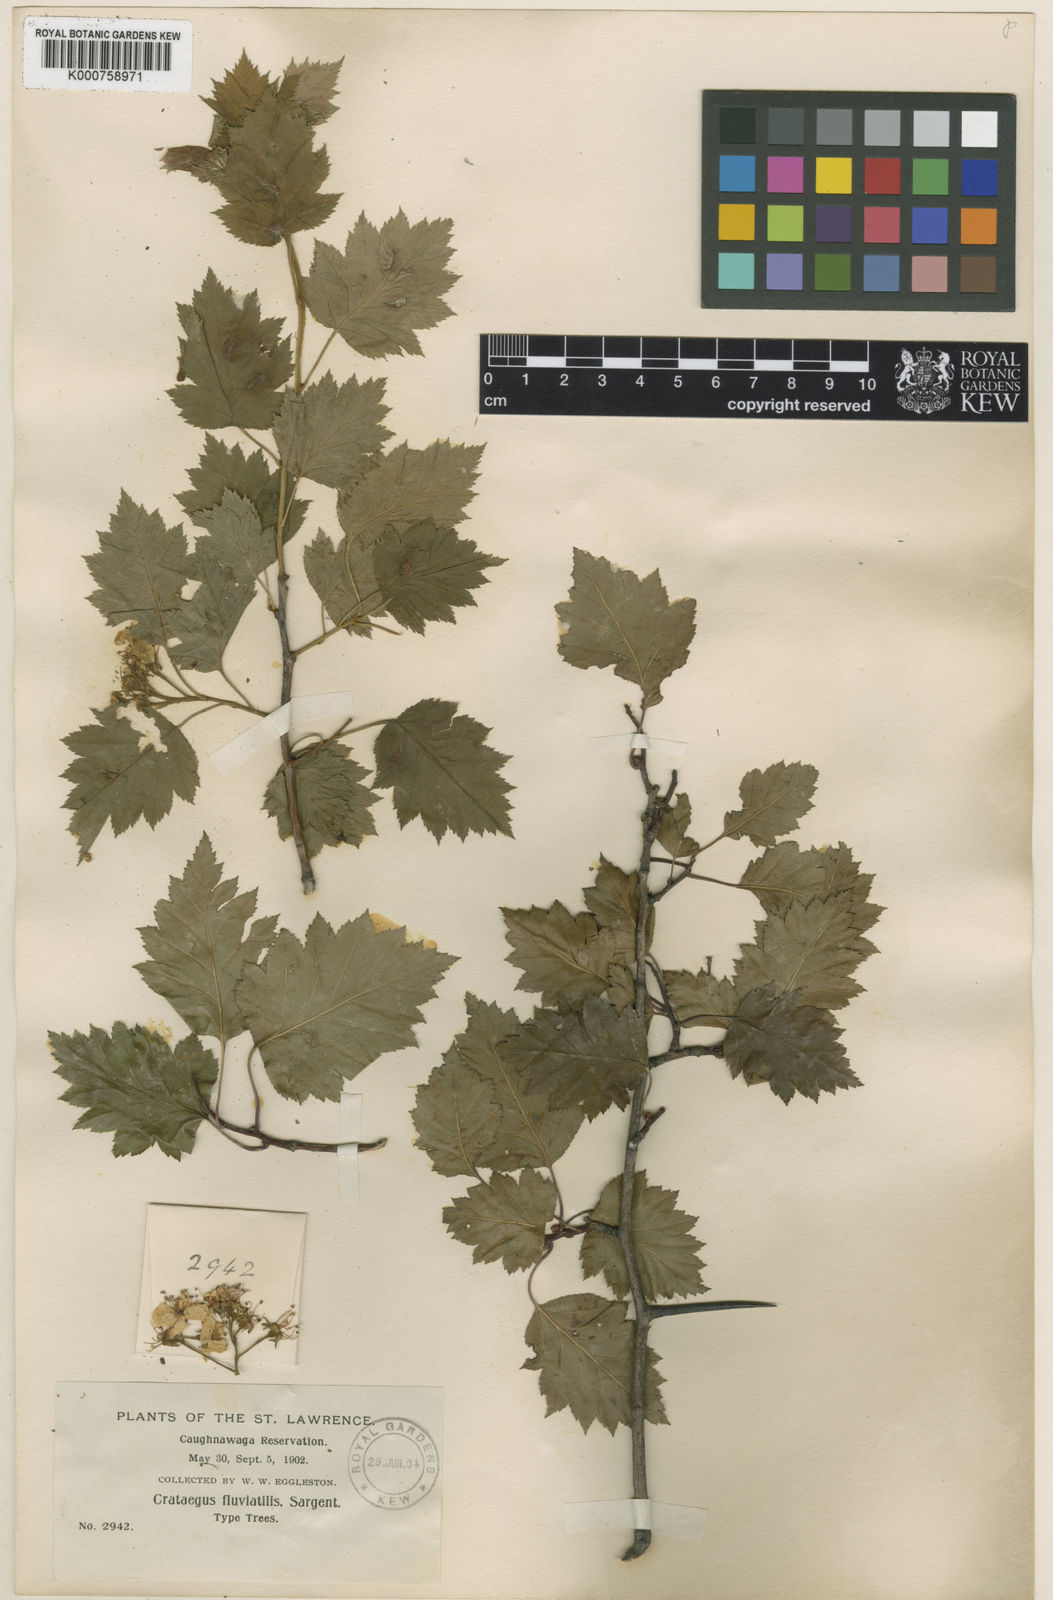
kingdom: Plantae
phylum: Tracheophyta
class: Magnoliopsida
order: Rosales
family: Rosaceae
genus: Crataegus
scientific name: Crataegus fluviatilis
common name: Fort sheridan hawthorn
